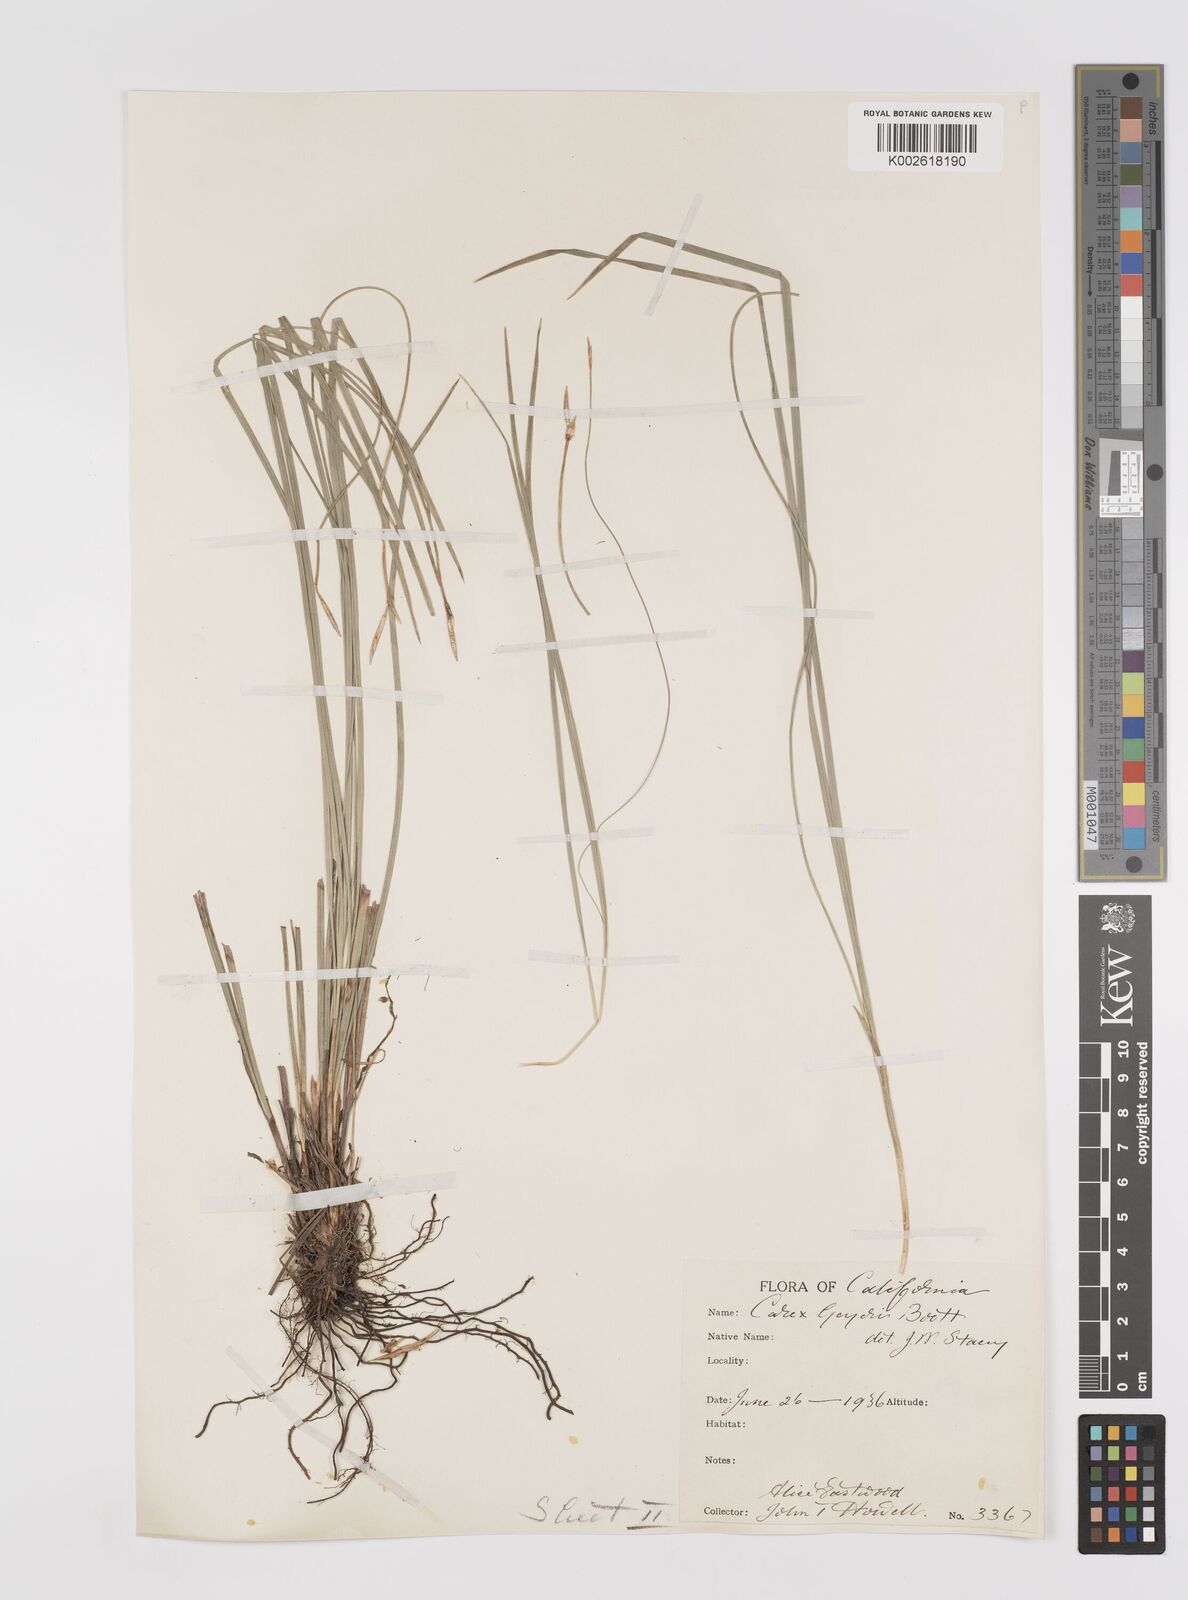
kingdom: Plantae
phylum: Tracheophyta
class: Liliopsida
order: Poales
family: Cyperaceae
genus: Carex
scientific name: Carex geyeri
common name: Elk sedge
